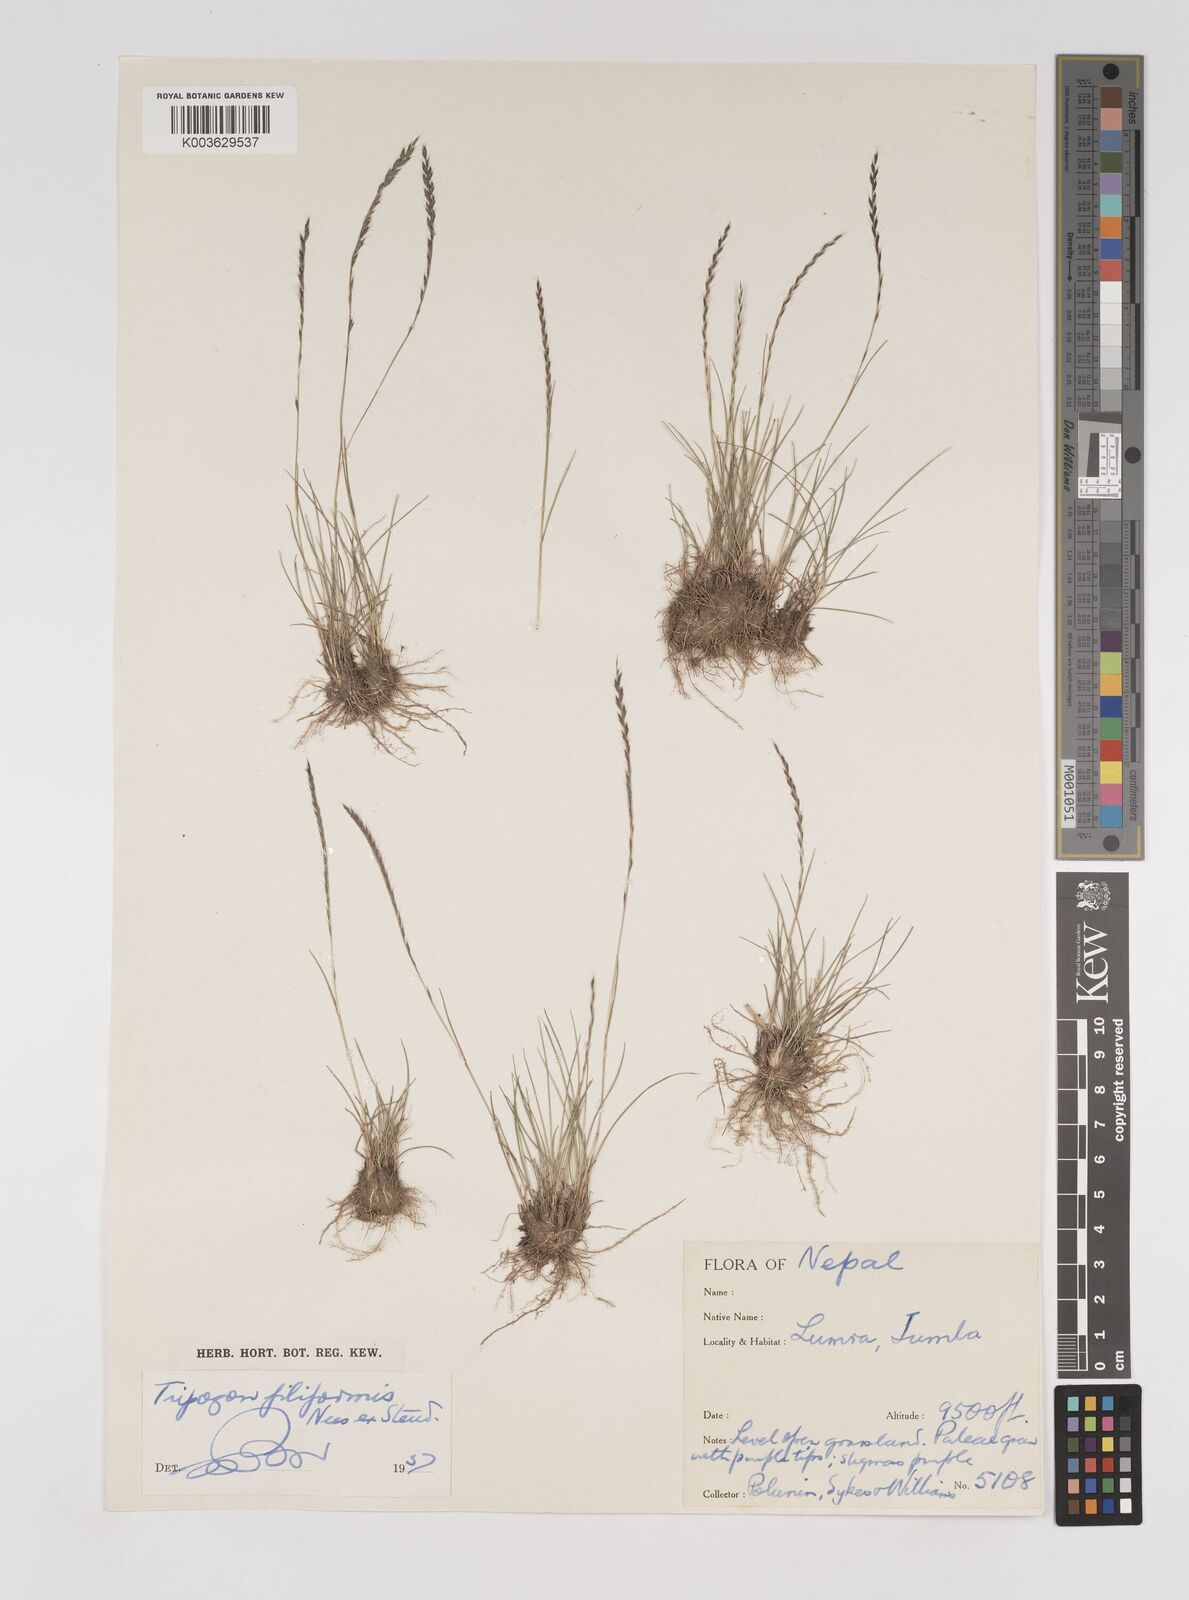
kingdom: Plantae
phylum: Tracheophyta
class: Liliopsida
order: Poales
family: Poaceae
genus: Tripogon
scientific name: Tripogon filiformis
